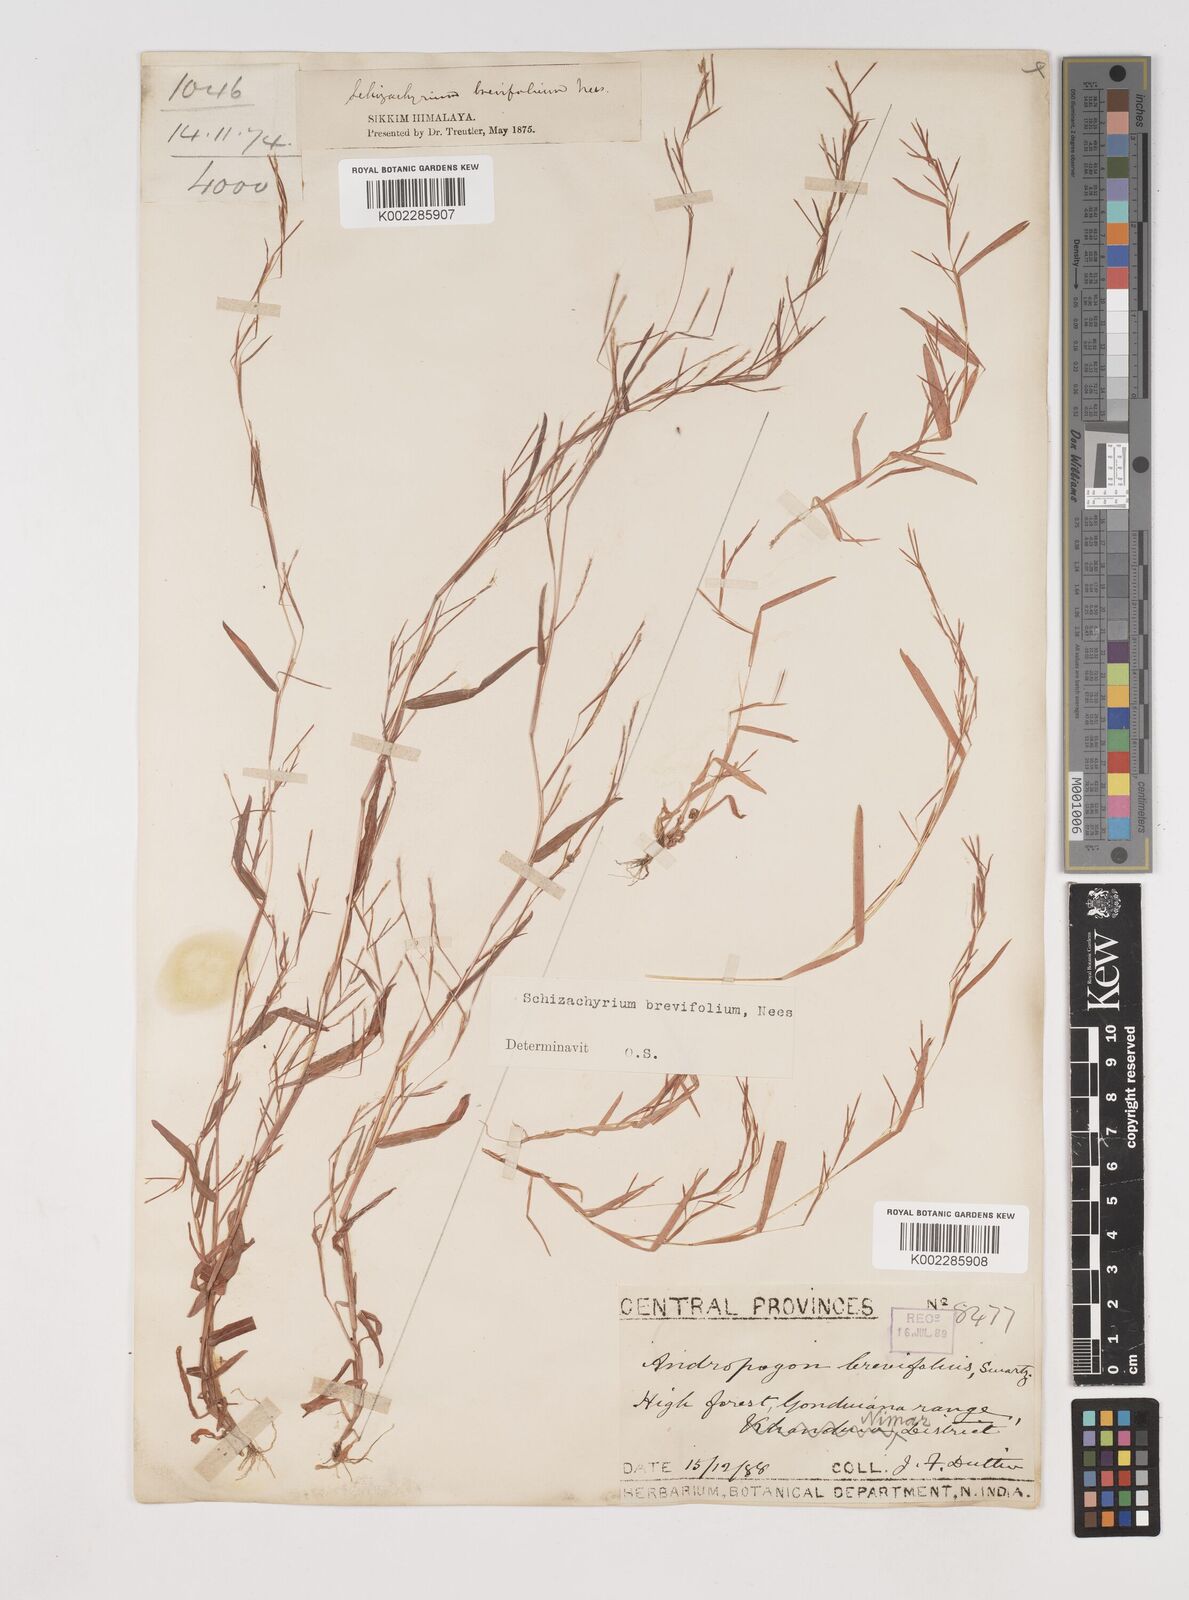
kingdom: Plantae
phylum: Tracheophyta
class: Liliopsida
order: Poales
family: Poaceae
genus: Schizachyrium
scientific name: Schizachyrium brevifolium
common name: Serillo dulce
